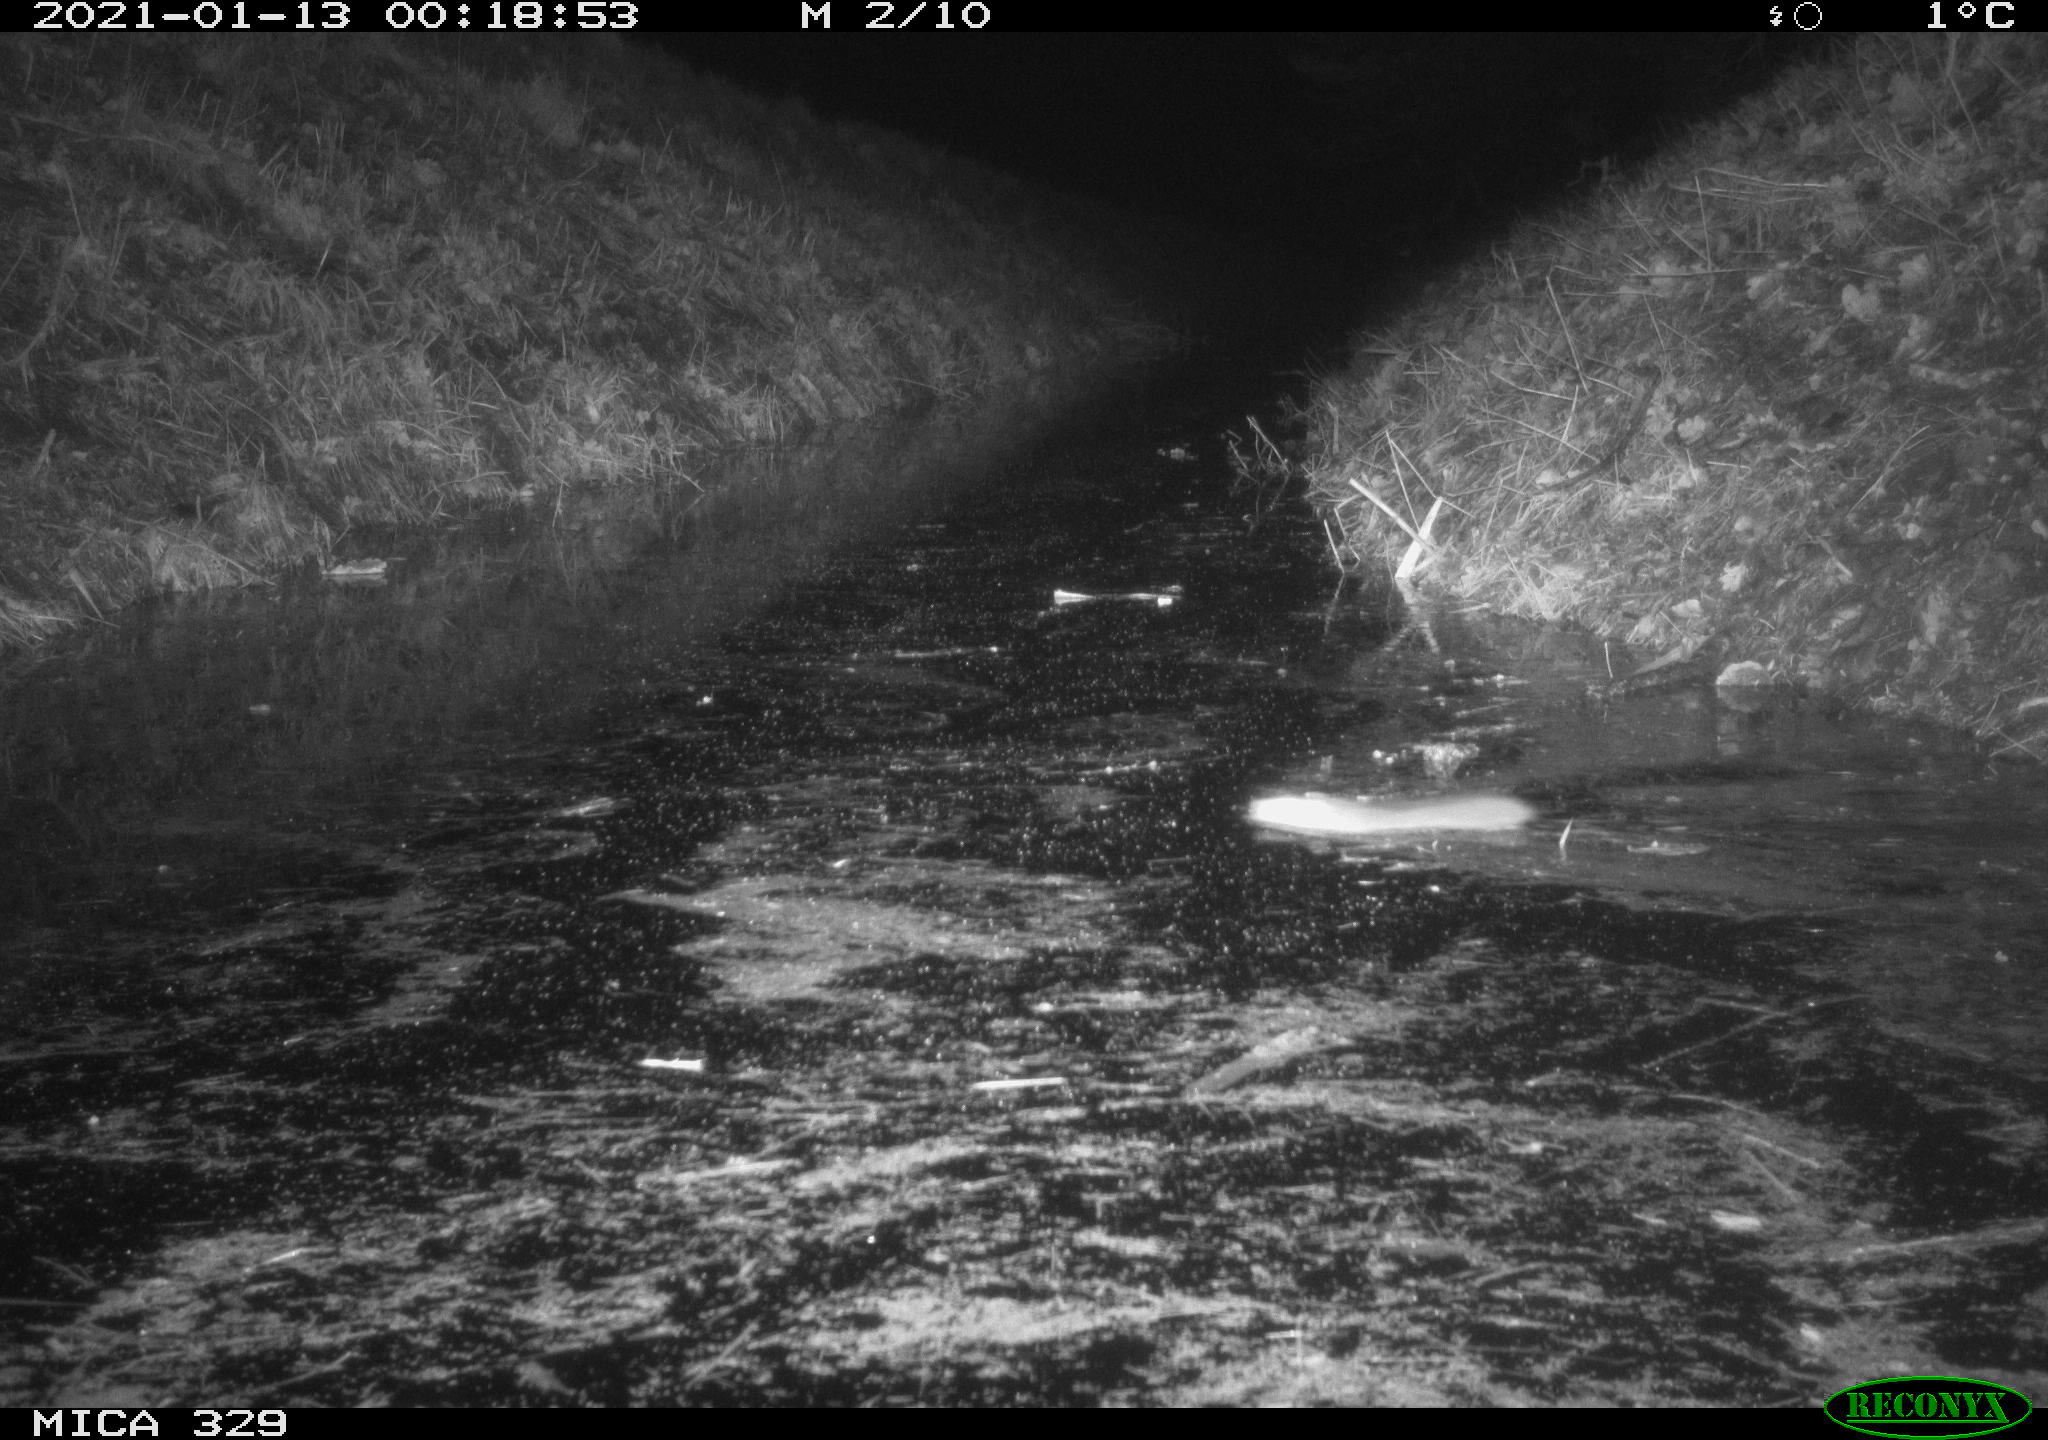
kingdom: Animalia
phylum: Chordata
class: Mammalia
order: Rodentia
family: Muridae
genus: Rattus
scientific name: Rattus norvegicus
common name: Brown rat
